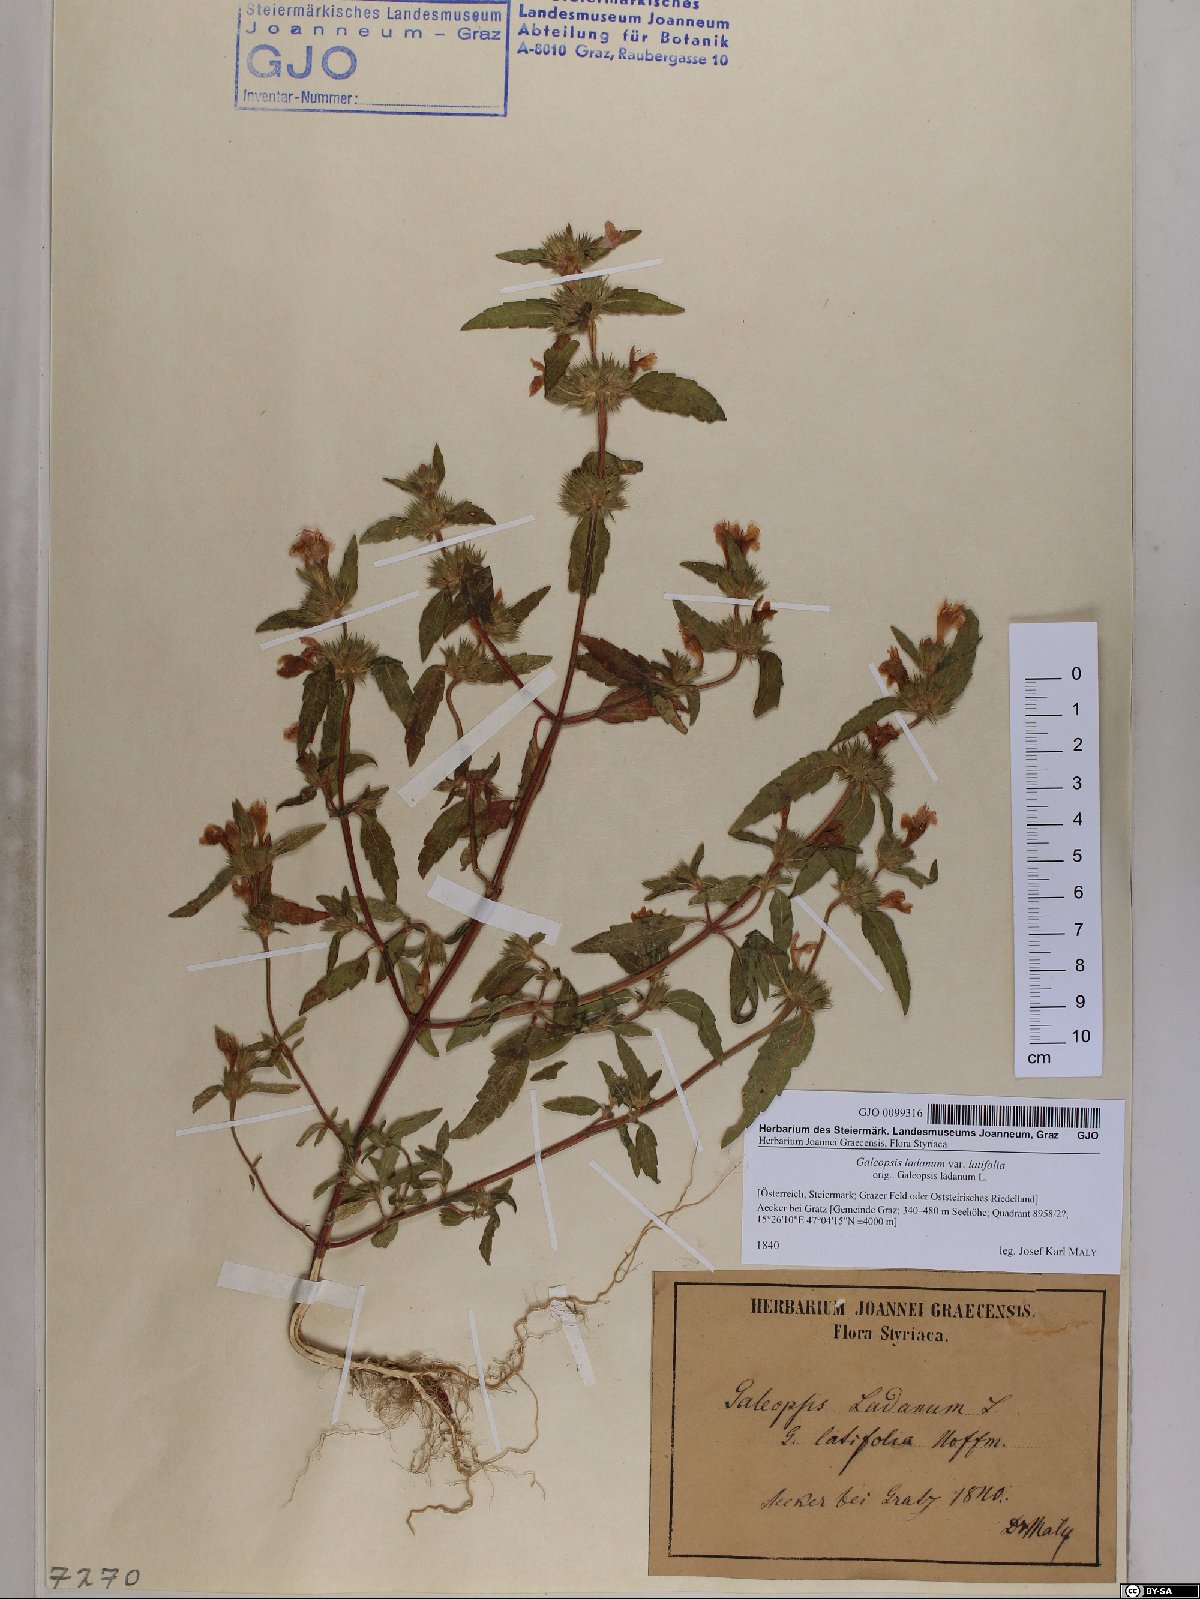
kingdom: Plantae
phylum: Tracheophyta
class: Magnoliopsida
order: Lamiales
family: Lamiaceae
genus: Galeopsis
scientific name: Galeopsis ladanum
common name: Broad-leaved hemp-nettle
